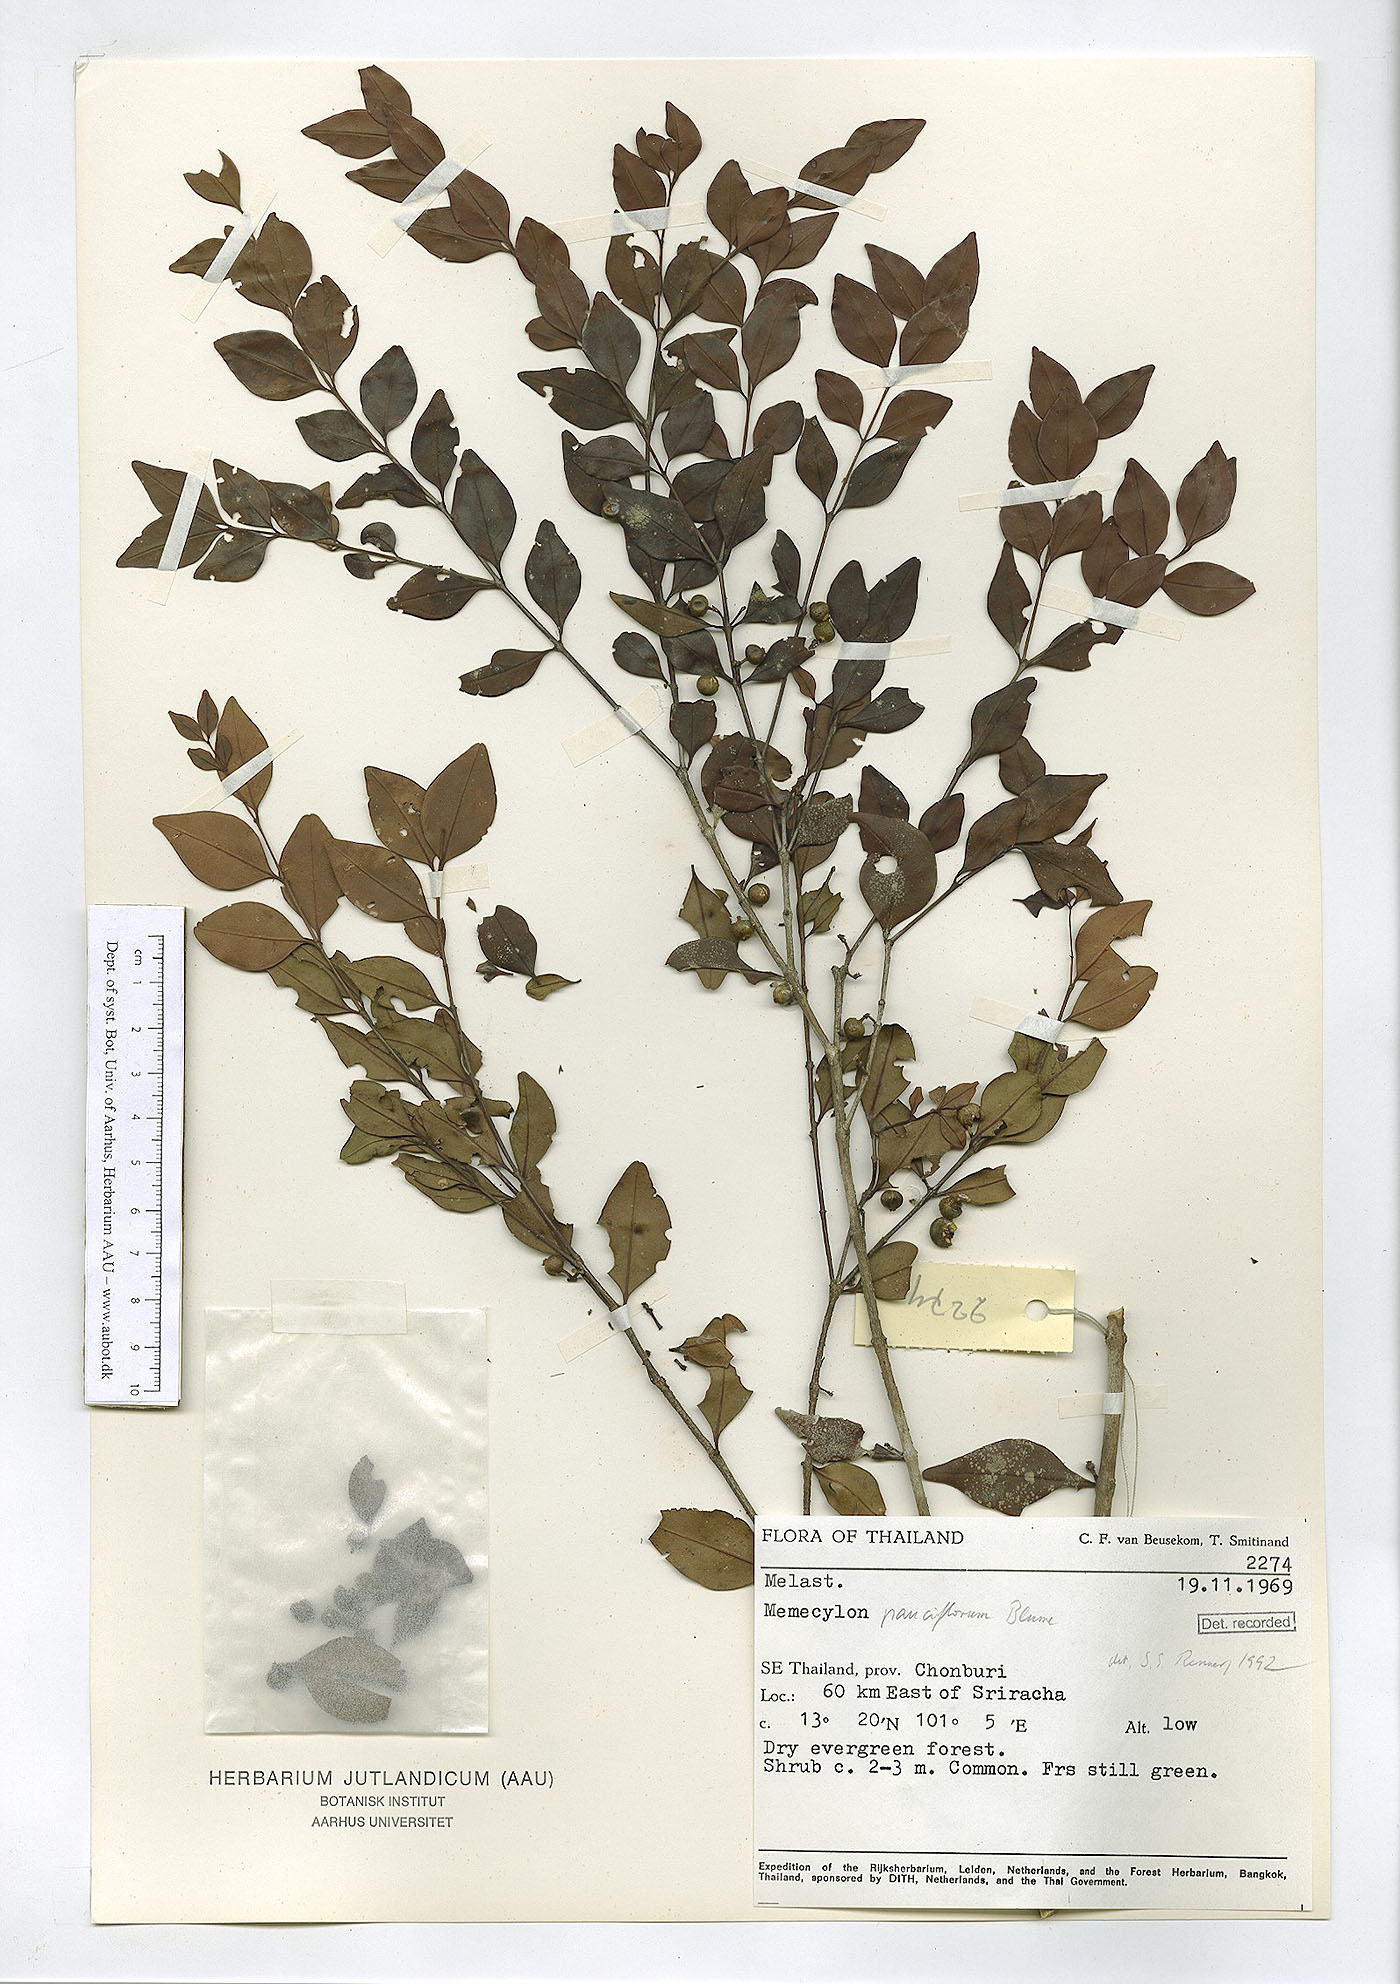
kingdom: Plantae
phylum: Tracheophyta
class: Magnoliopsida
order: Myrtales
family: Melastomataceae
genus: Memecylon
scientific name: Memecylon pauciflorum
